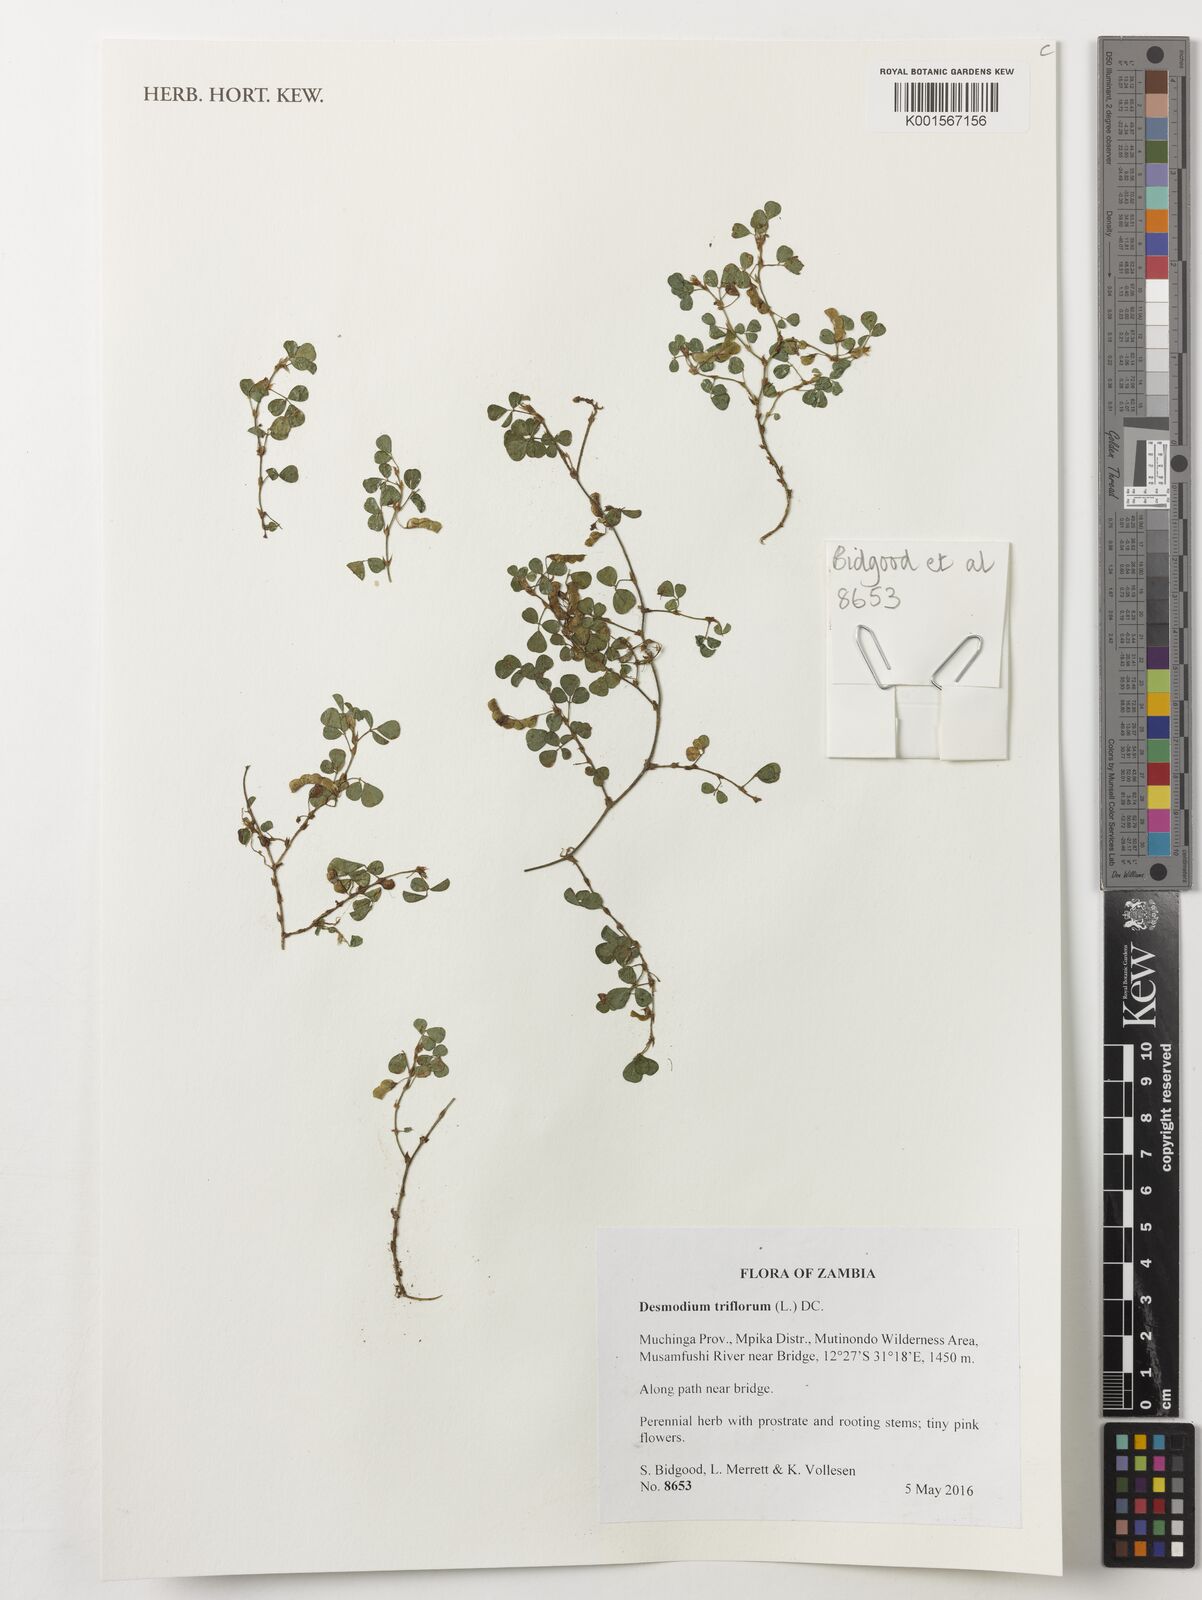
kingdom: Plantae
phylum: Tracheophyta
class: Magnoliopsida
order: Fabales
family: Fabaceae
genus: Grona
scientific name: Grona triflora
